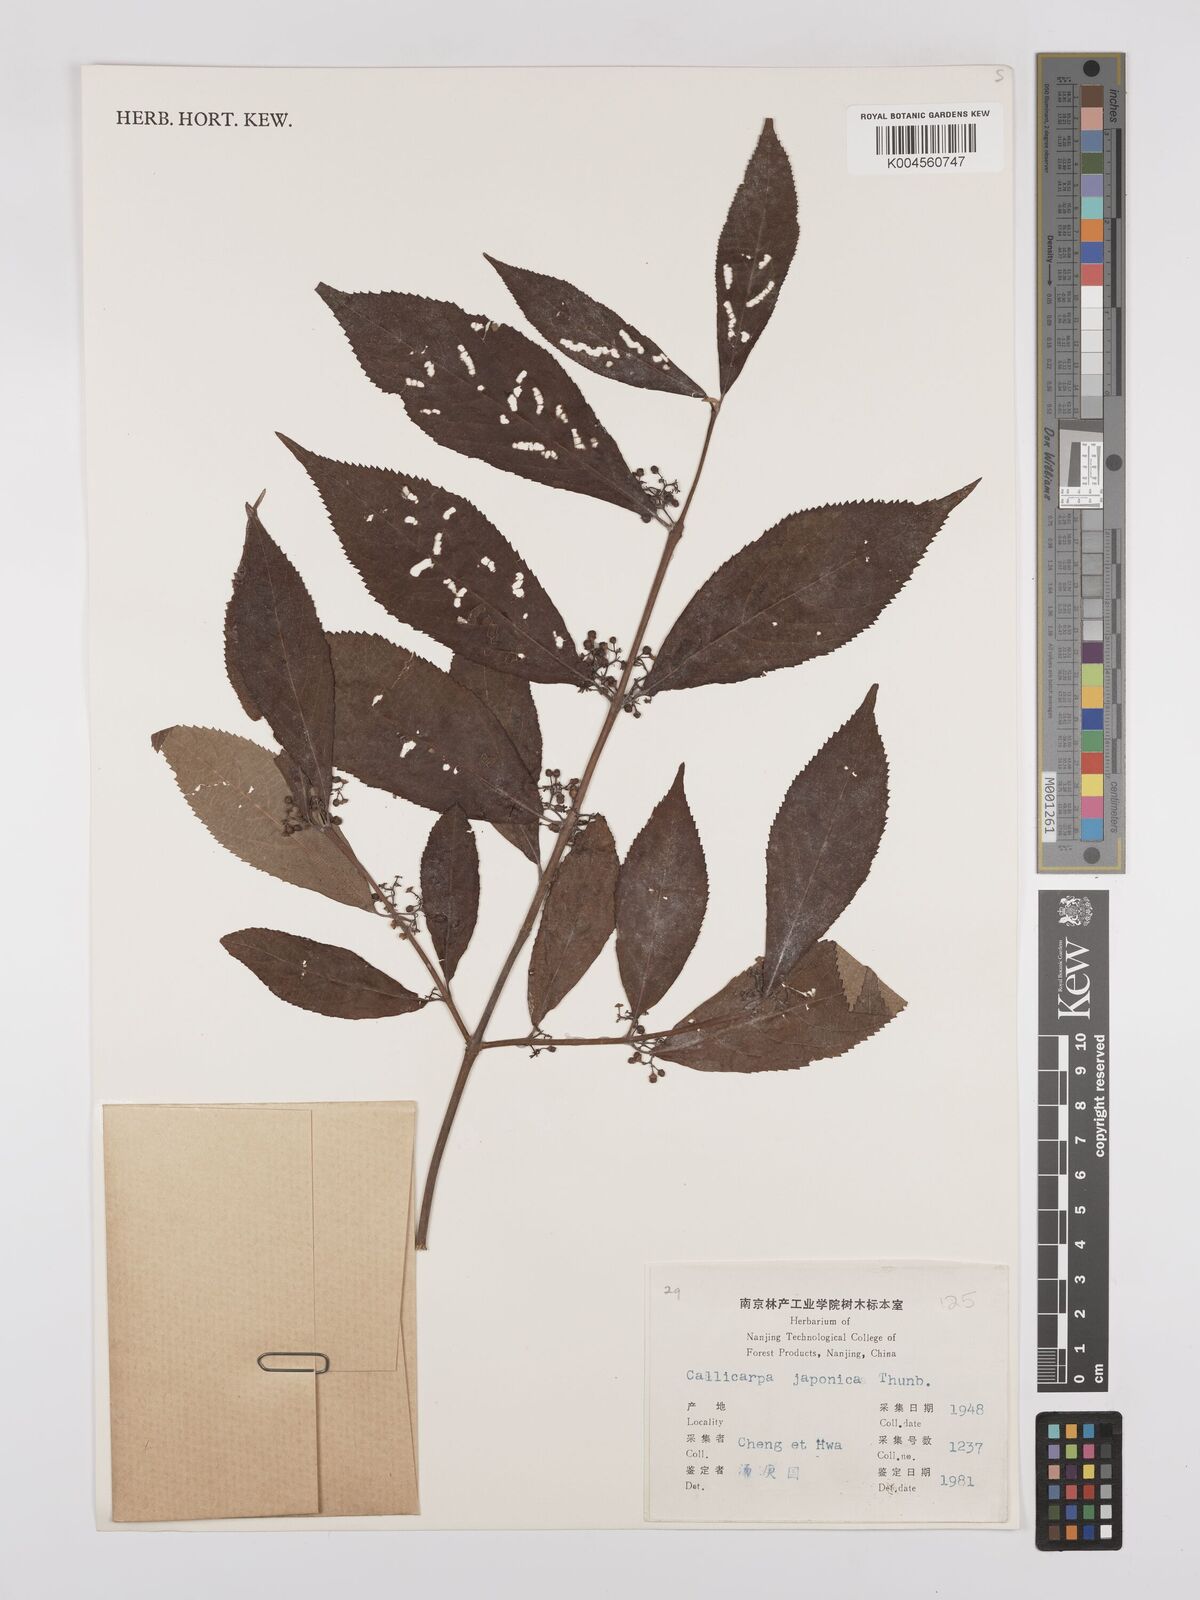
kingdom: Plantae
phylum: Tracheophyta
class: Magnoliopsida
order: Lamiales
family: Lamiaceae
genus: Callicarpa
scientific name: Callicarpa japonica
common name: Japanese beauty-berry
